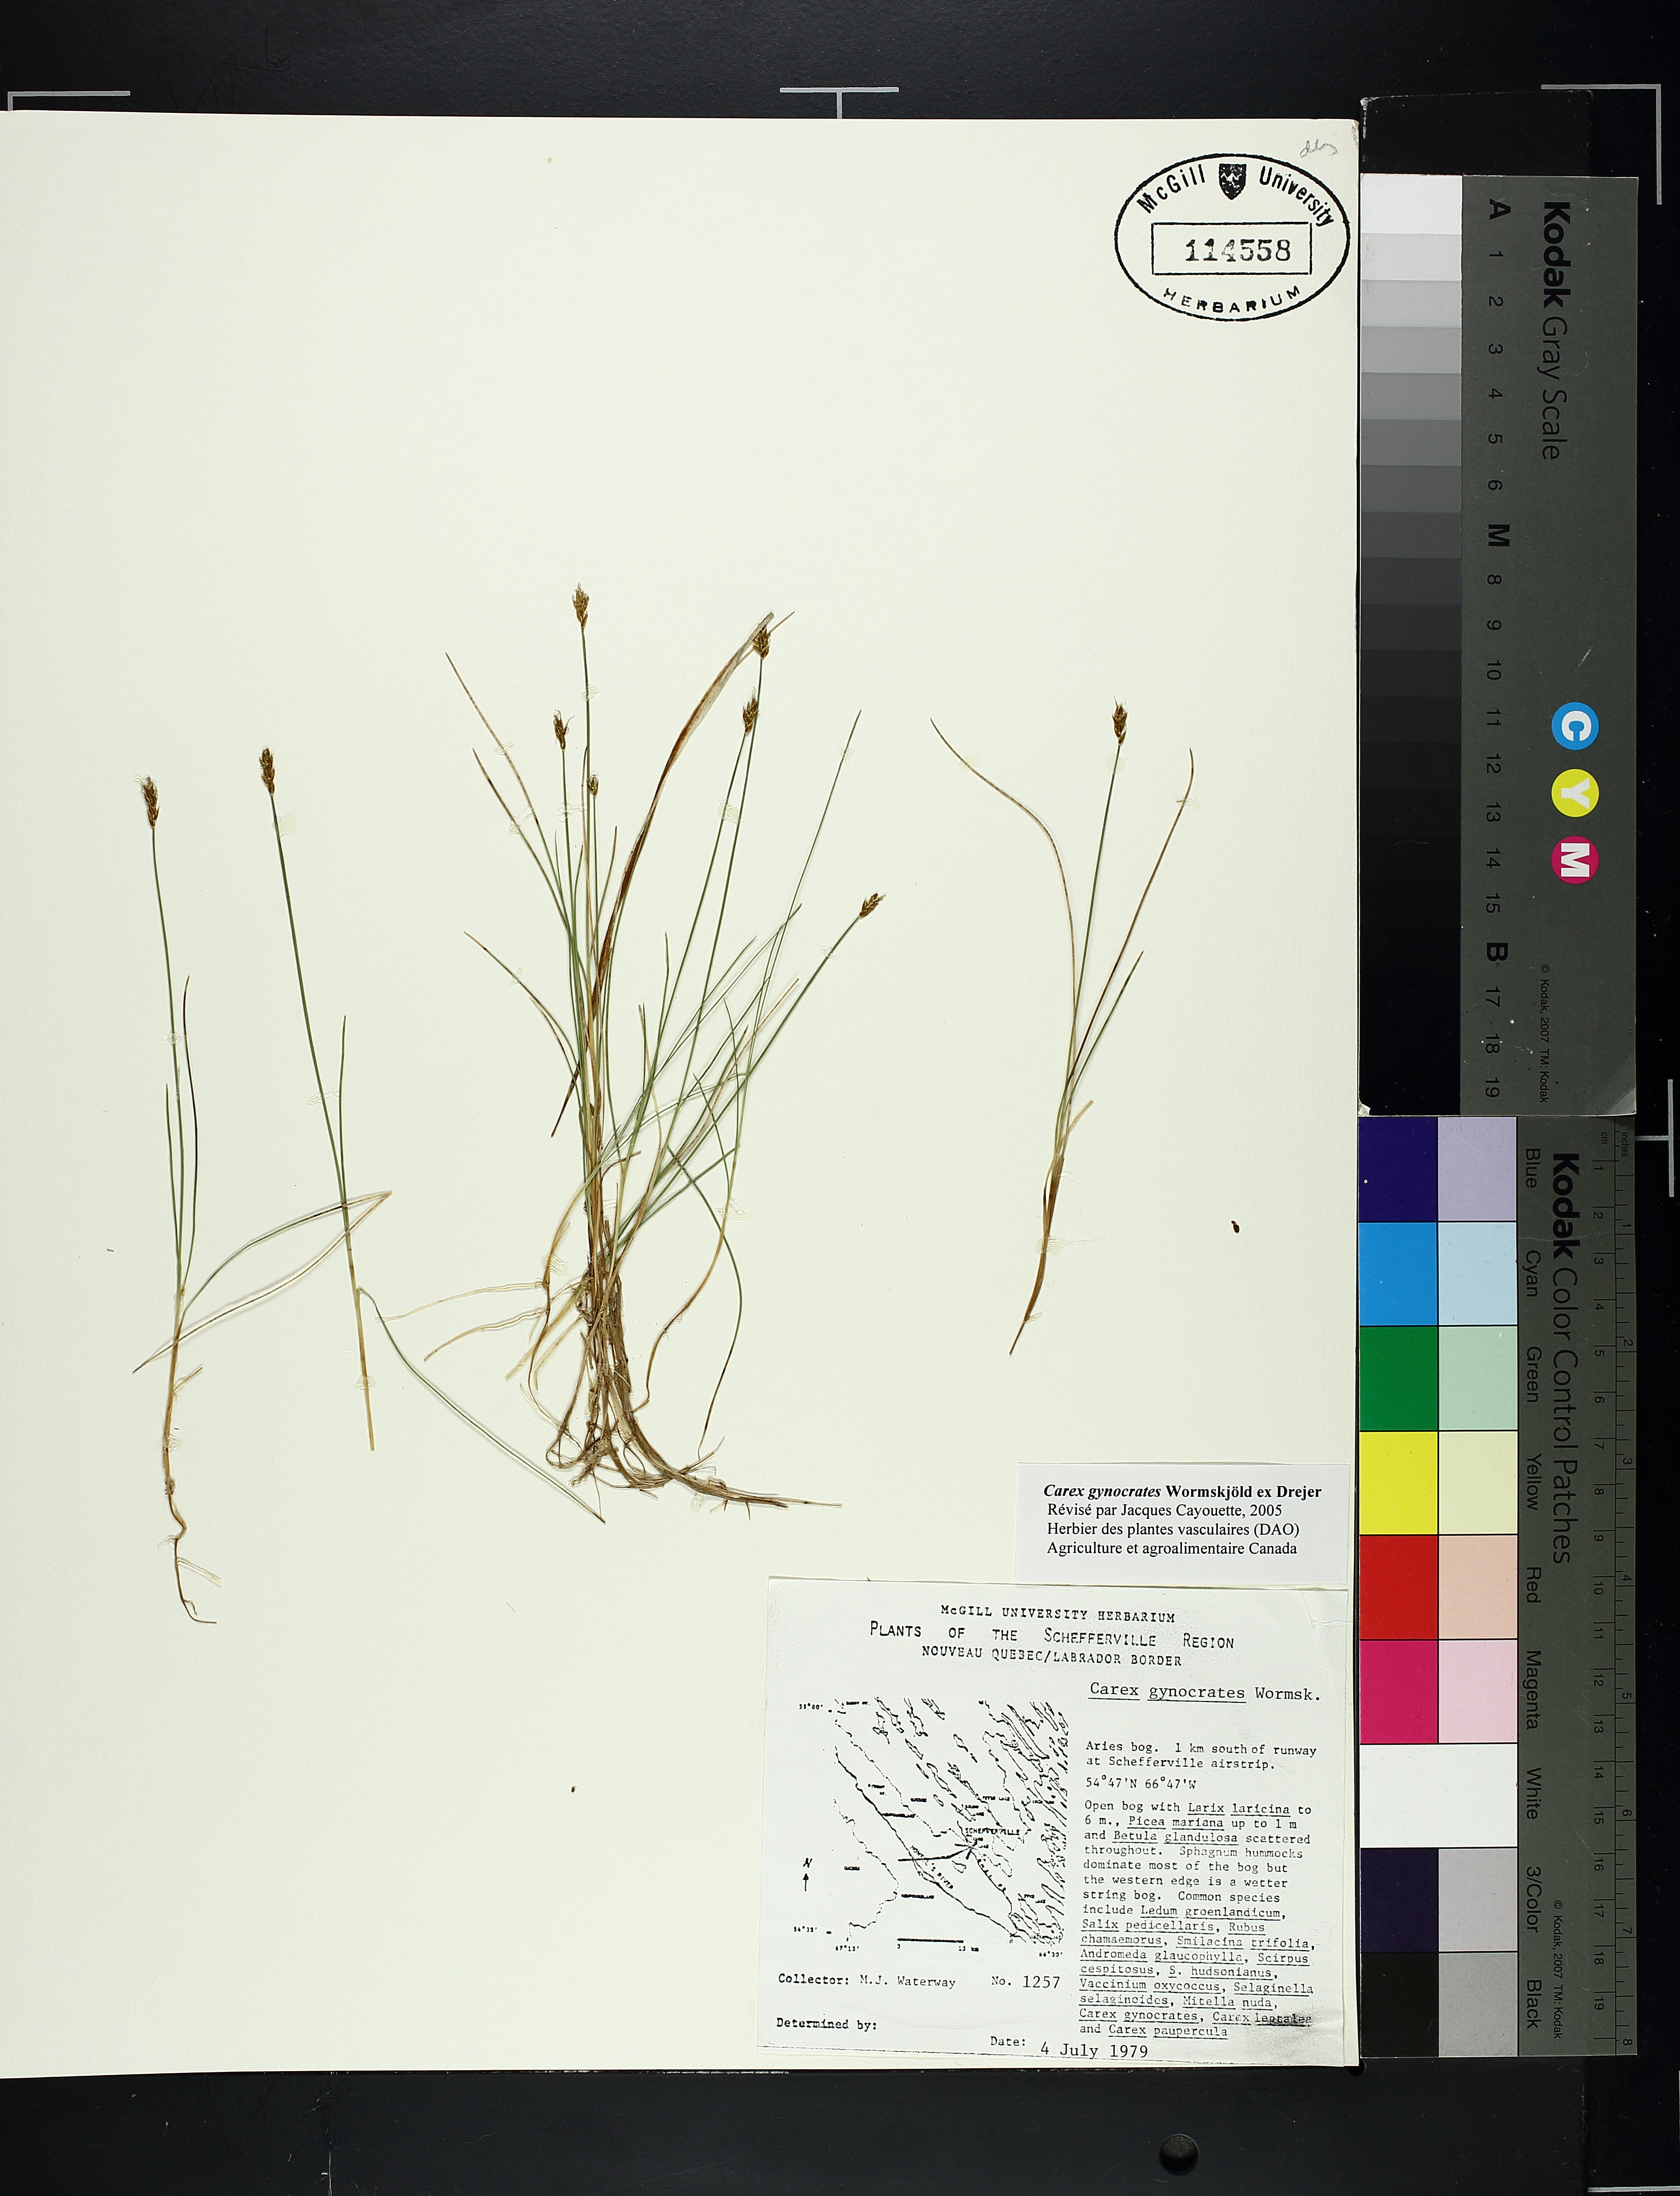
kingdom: Plantae
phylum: Tracheophyta
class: Liliopsida
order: Poales
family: Cyperaceae
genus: Carex
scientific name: Carex gynocrates
